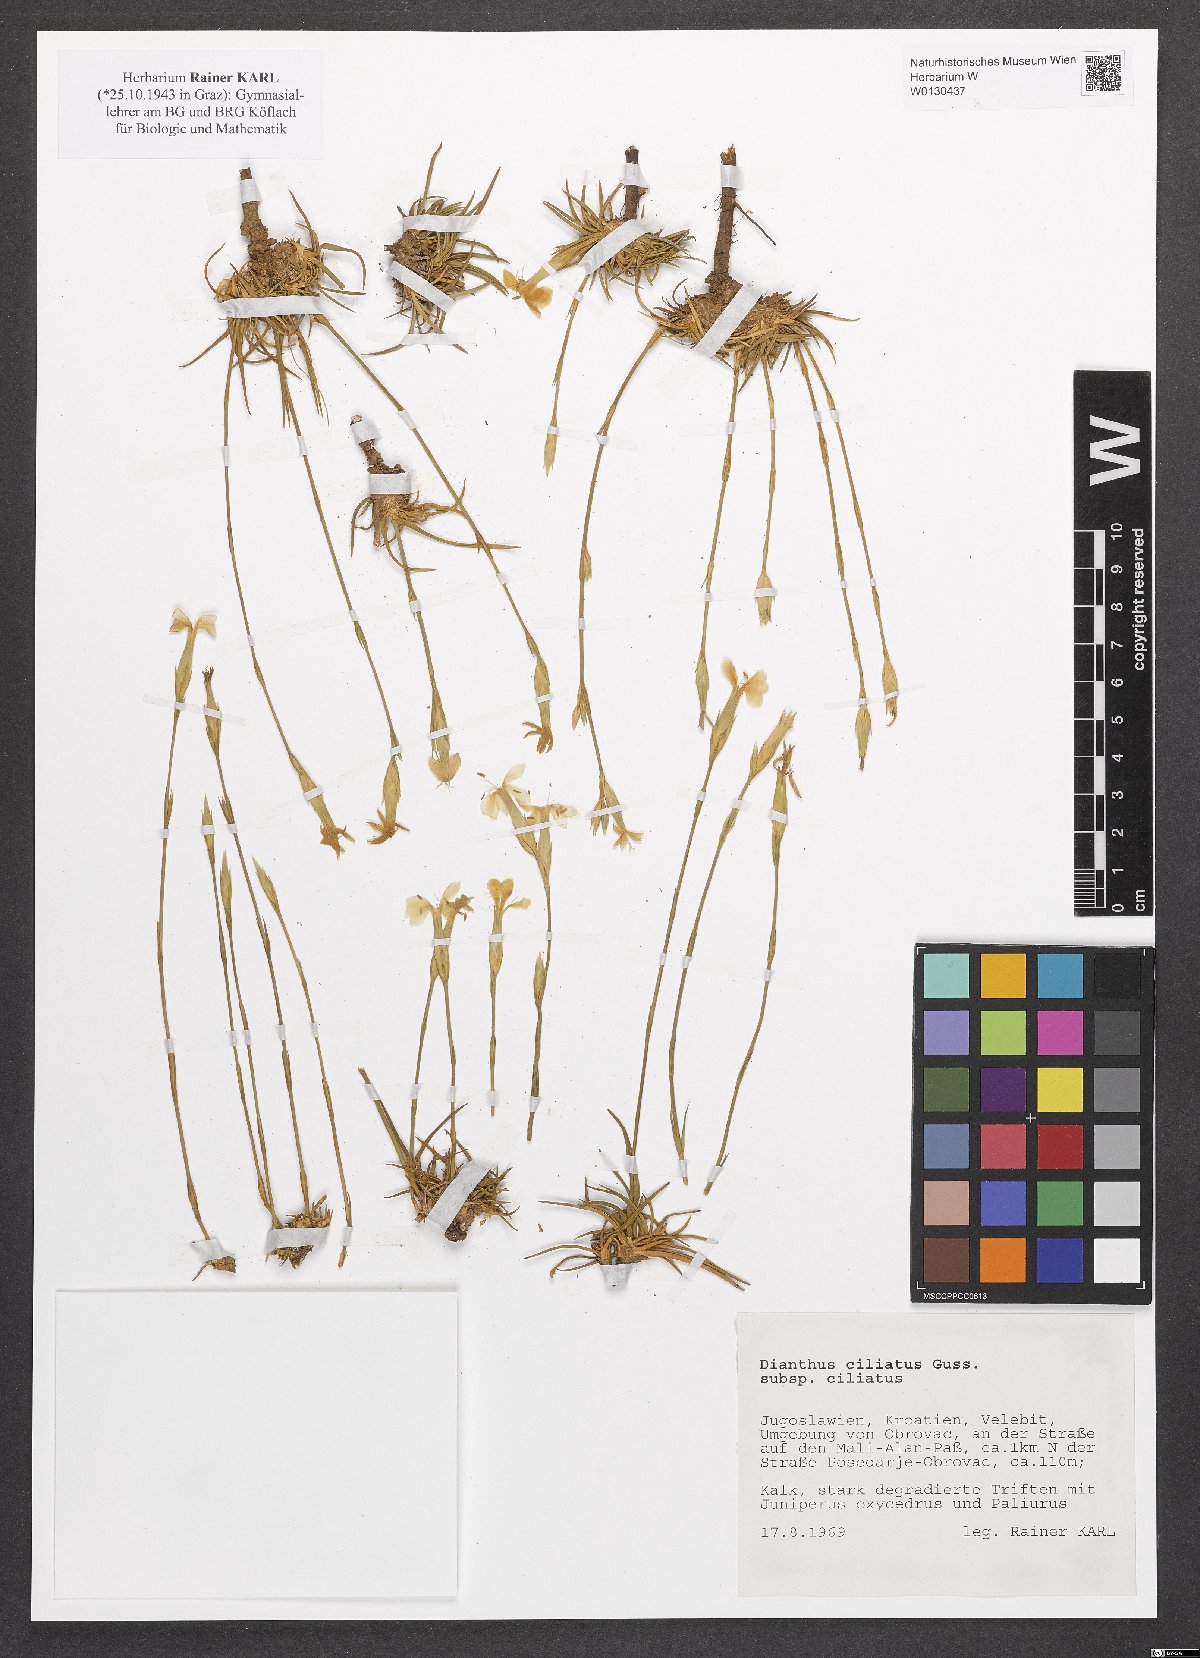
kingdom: Plantae
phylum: Tracheophyta
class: Magnoliopsida
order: Caryophyllales
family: Caryophyllaceae
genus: Dianthus
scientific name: Dianthus ciliatus
